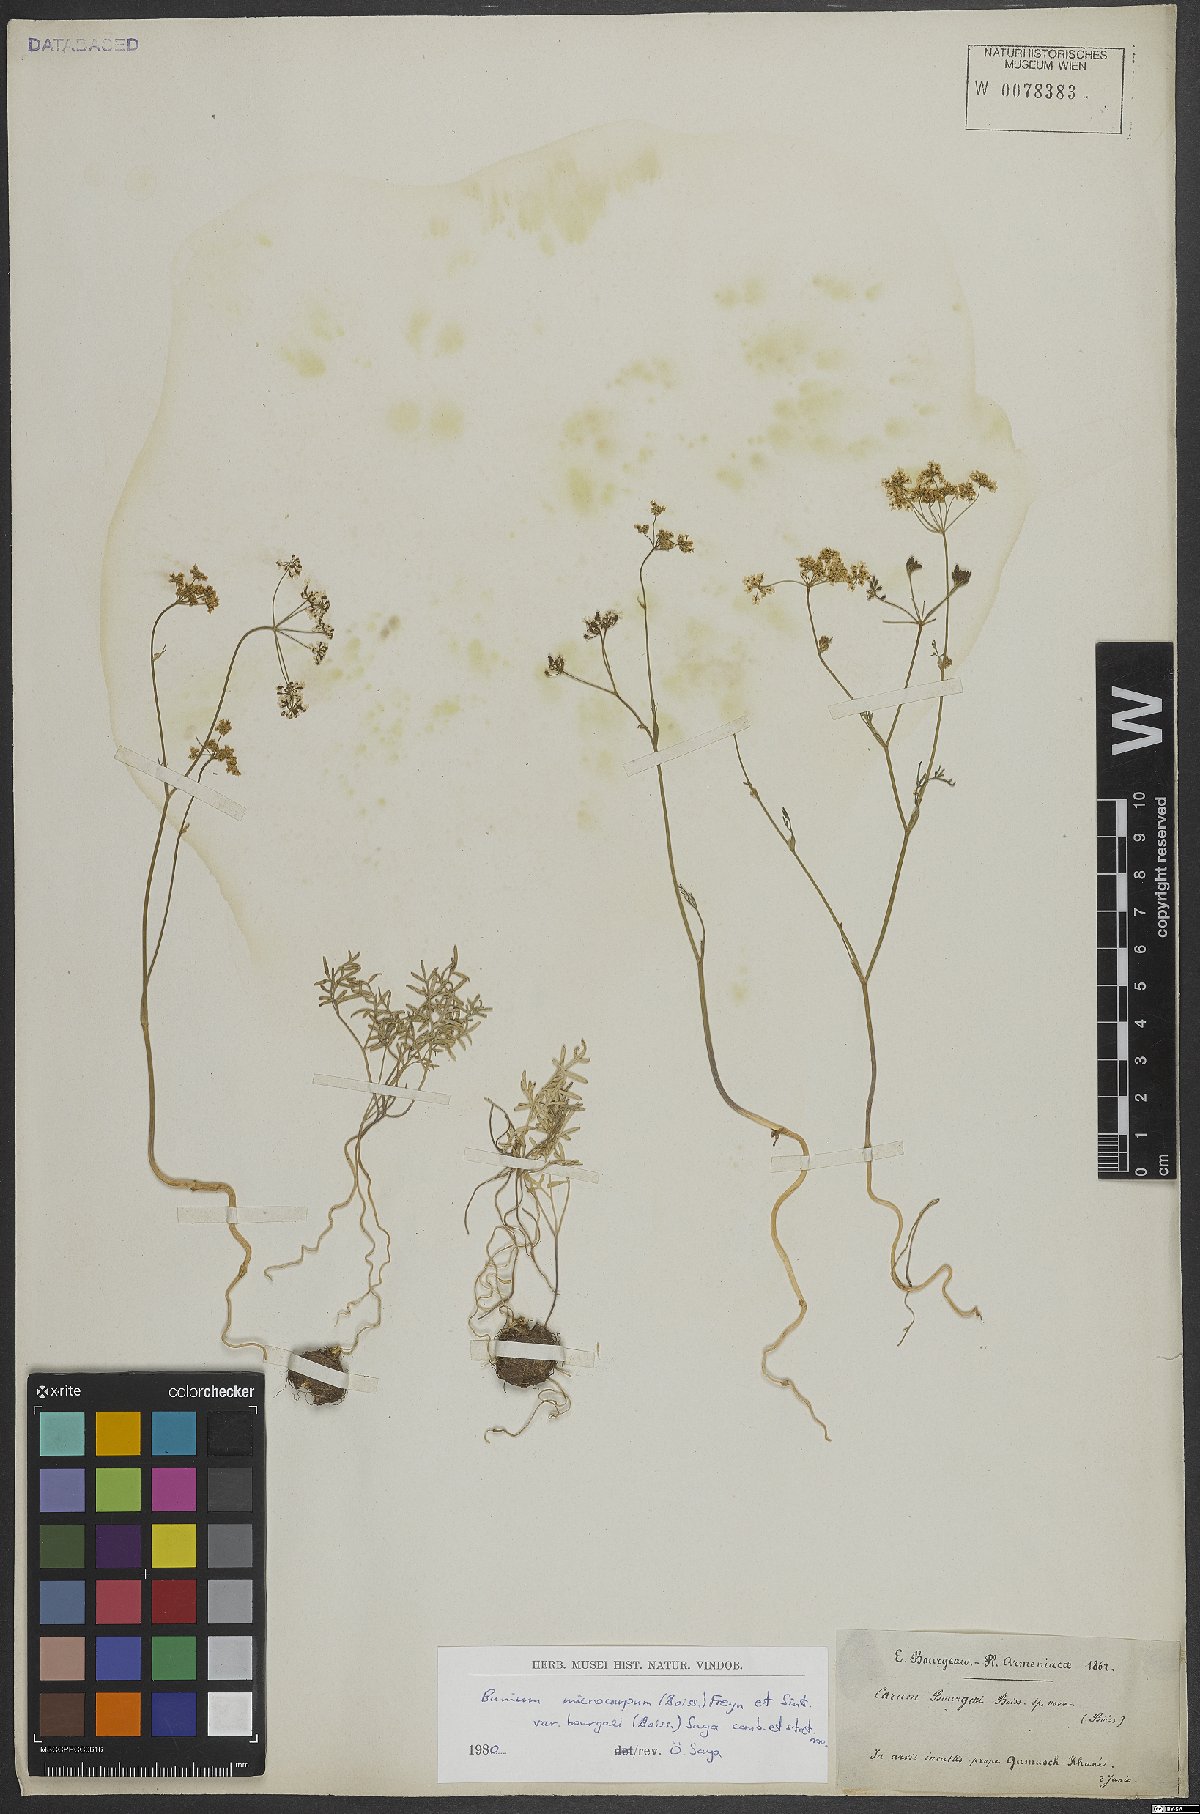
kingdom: Plantae
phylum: Tracheophyta
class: Magnoliopsida
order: Apiales
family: Apiaceae
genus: Bunium
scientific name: Bunium
